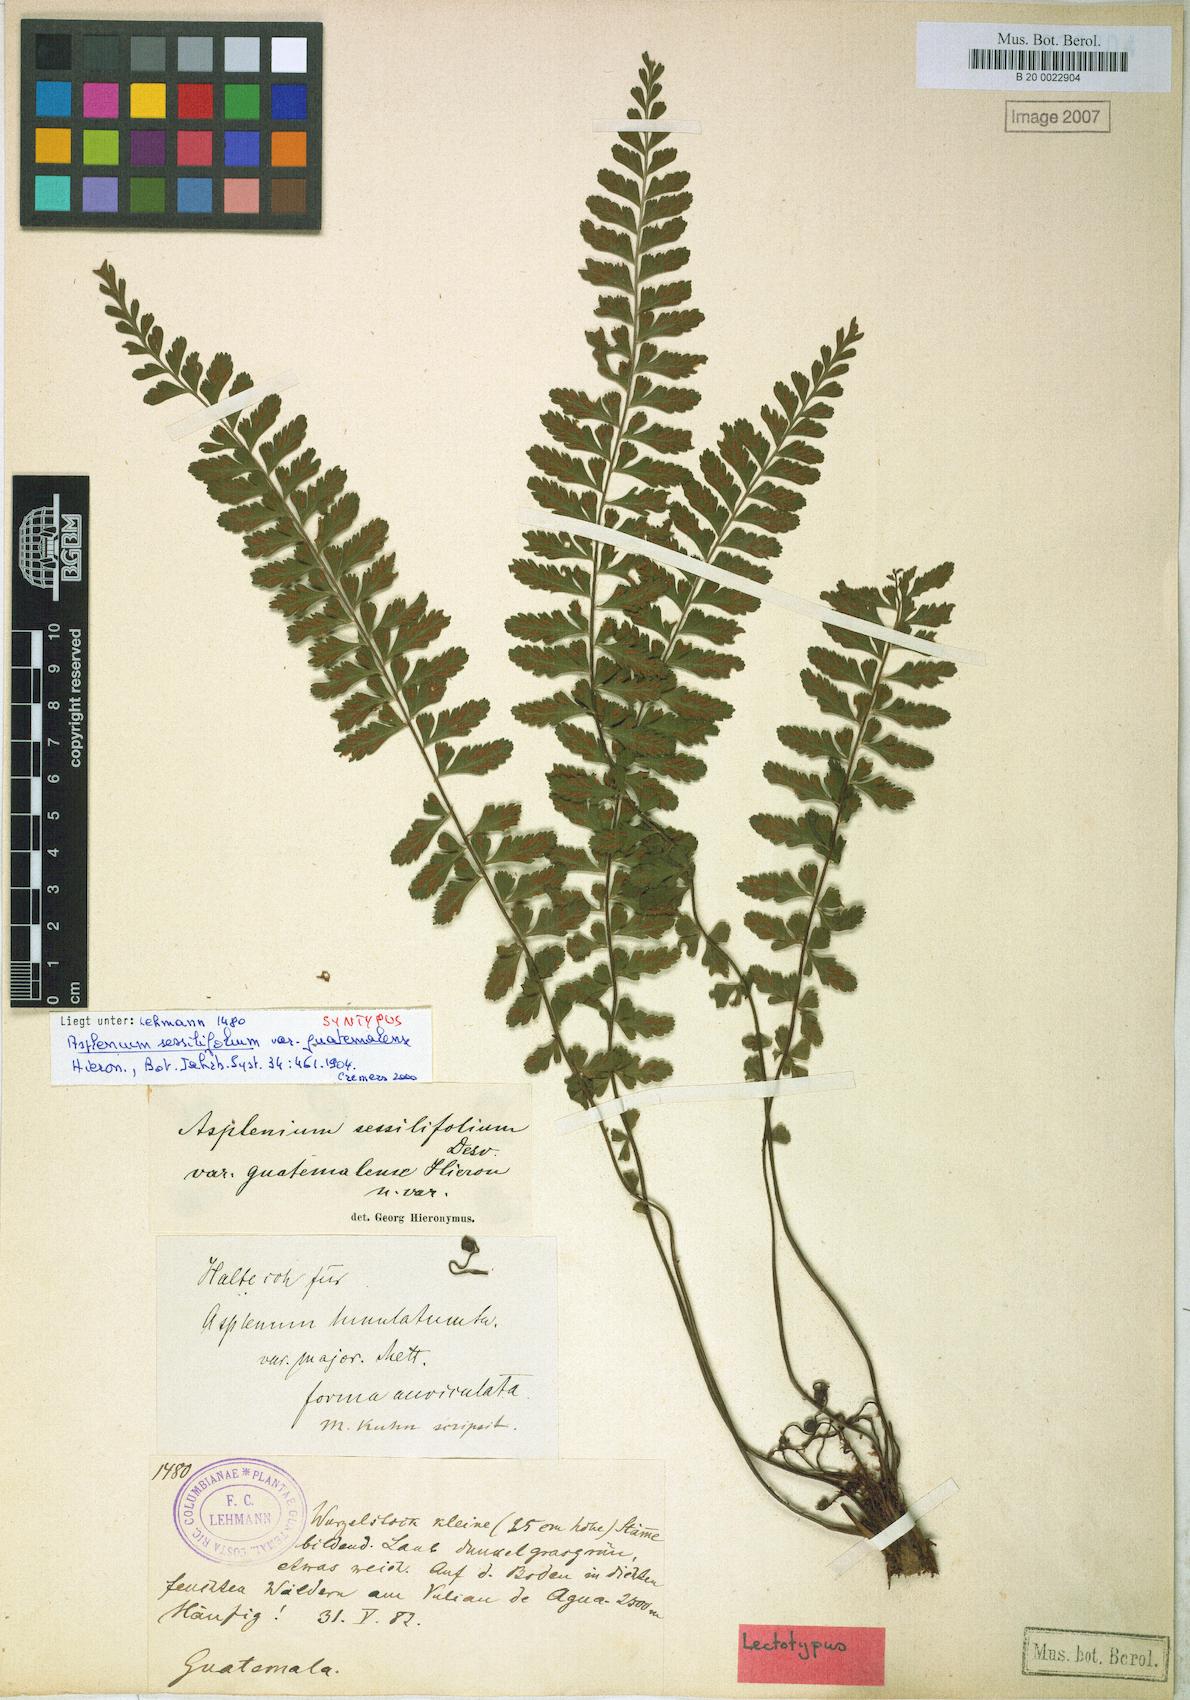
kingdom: Plantae
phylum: Tracheophyta
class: Polypodiopsida
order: Polypodiales
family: Aspleniaceae
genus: Asplenium
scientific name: Asplenium sessilifolium
